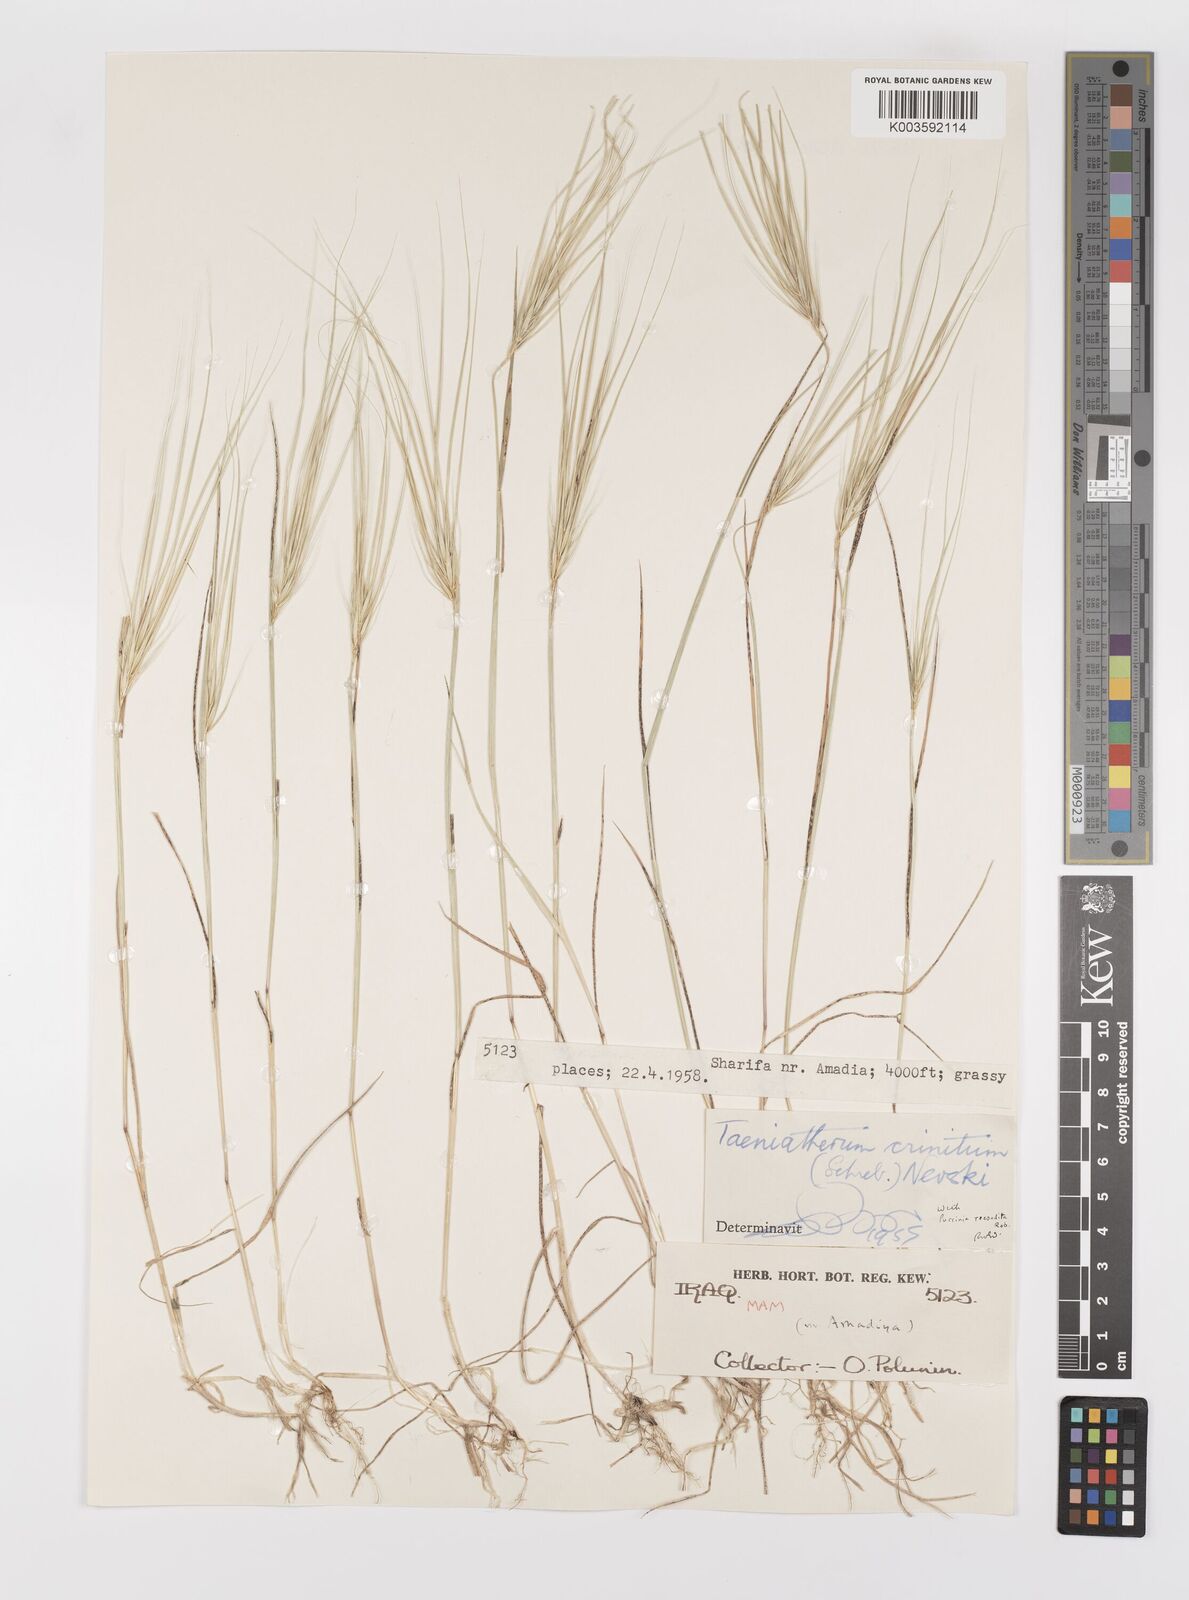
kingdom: Plantae
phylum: Tracheophyta
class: Liliopsida
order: Poales
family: Poaceae
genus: Taeniatherum
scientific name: Taeniatherum caput-medusae
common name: Medusahead
